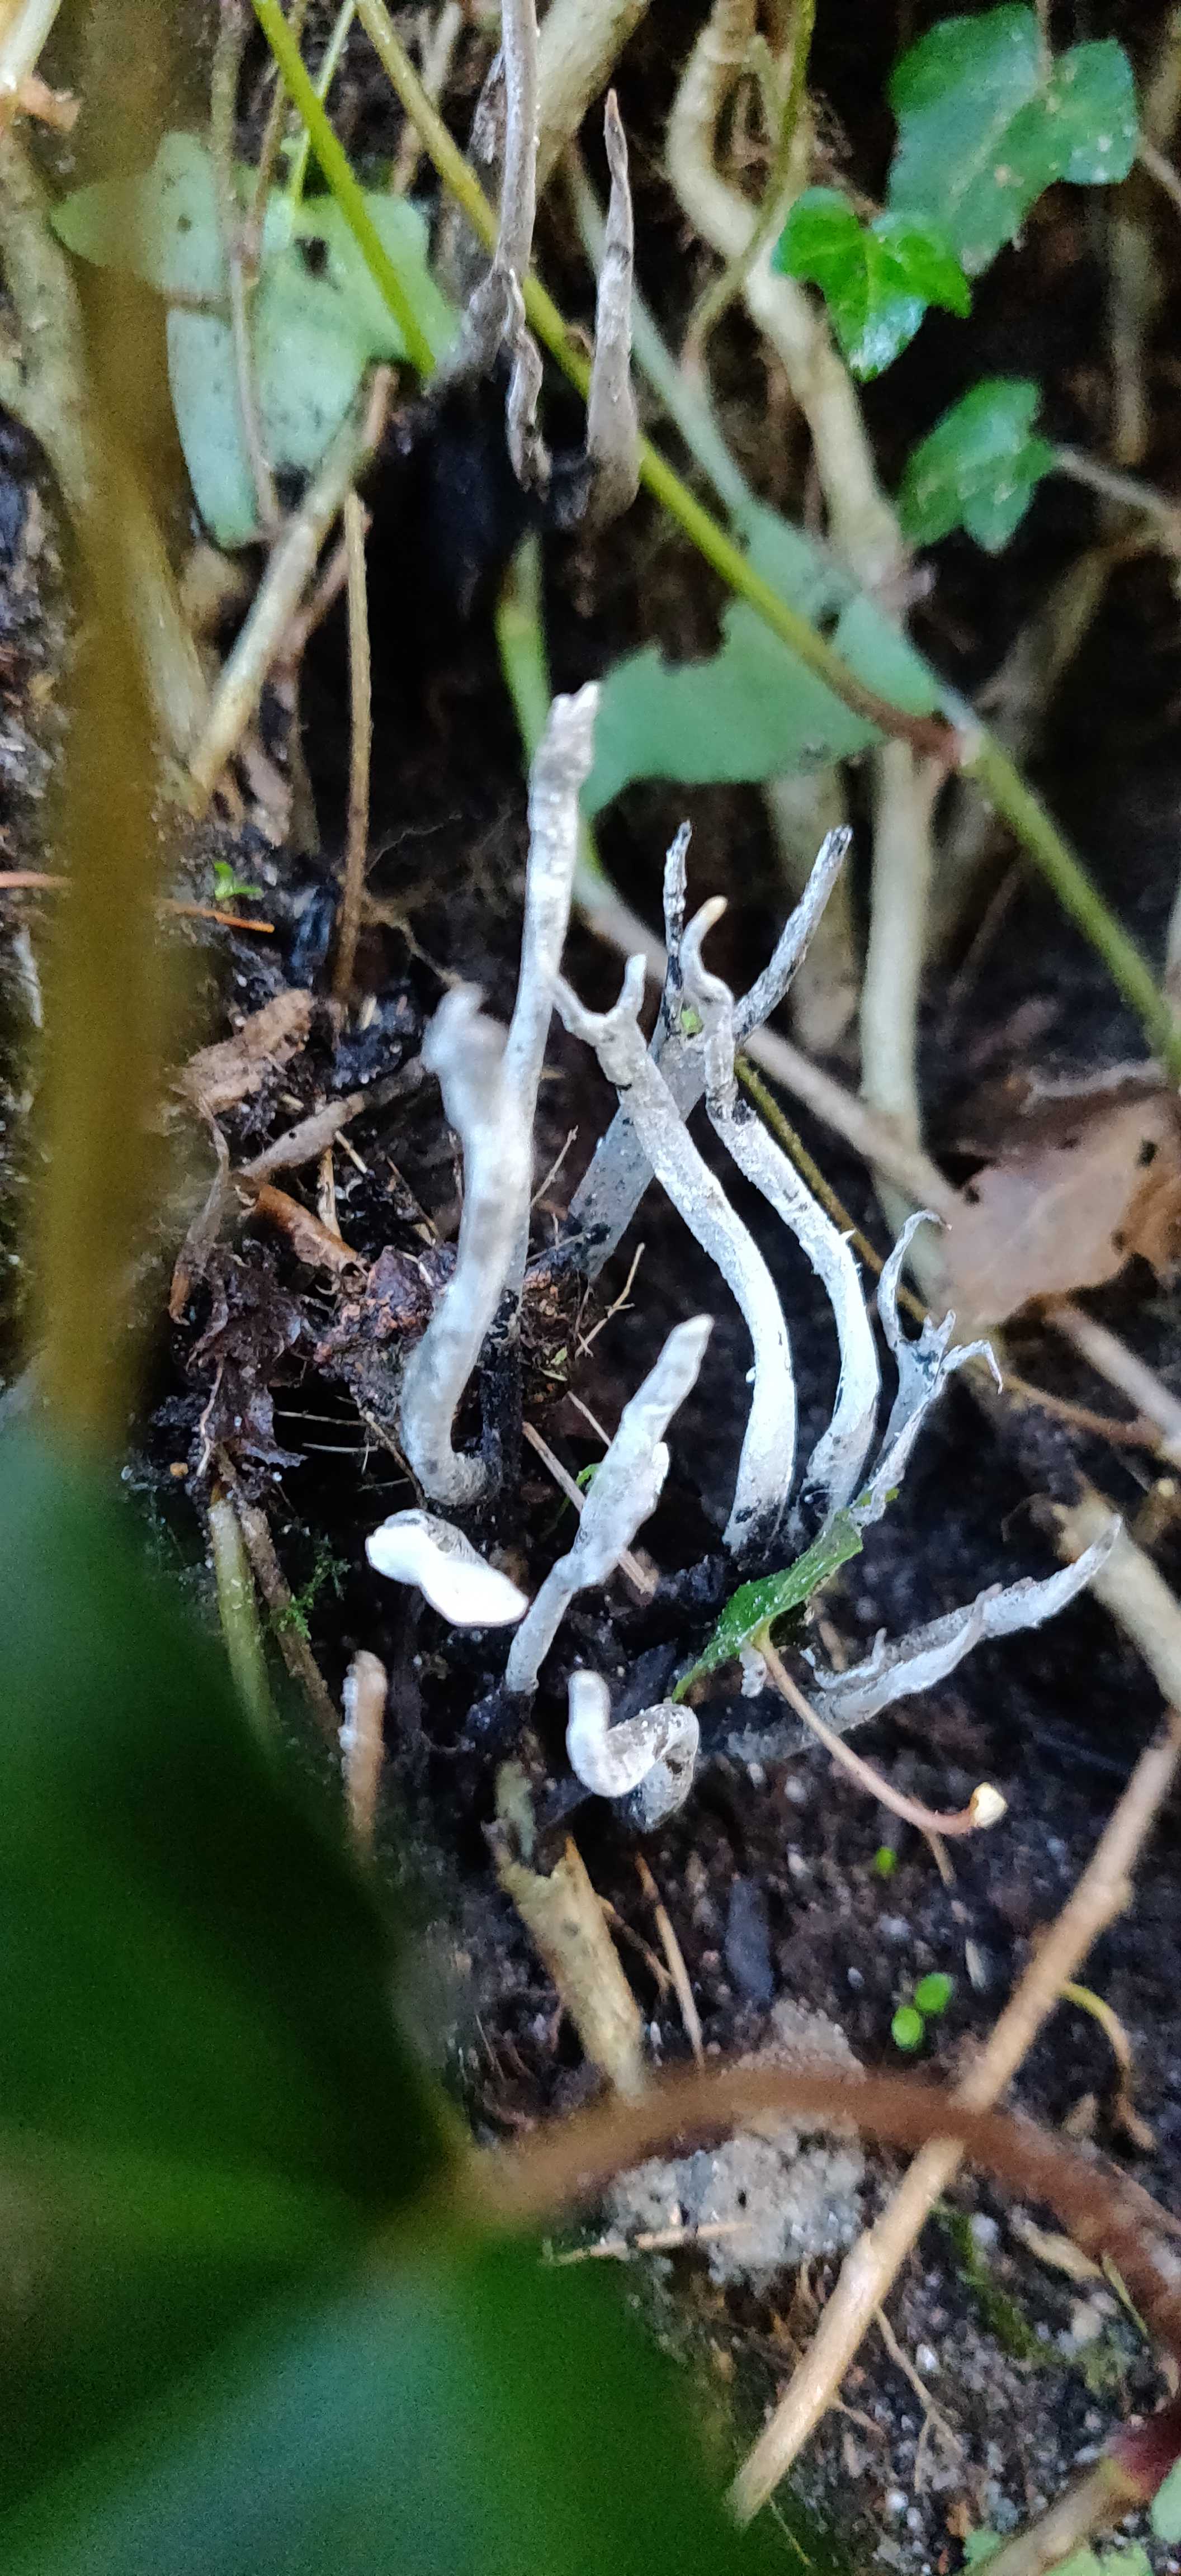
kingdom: Fungi
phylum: Ascomycota
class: Sordariomycetes
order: Xylariales
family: Xylariaceae
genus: Xylaria
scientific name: Xylaria hypoxylon
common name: grenet stødsvamp
